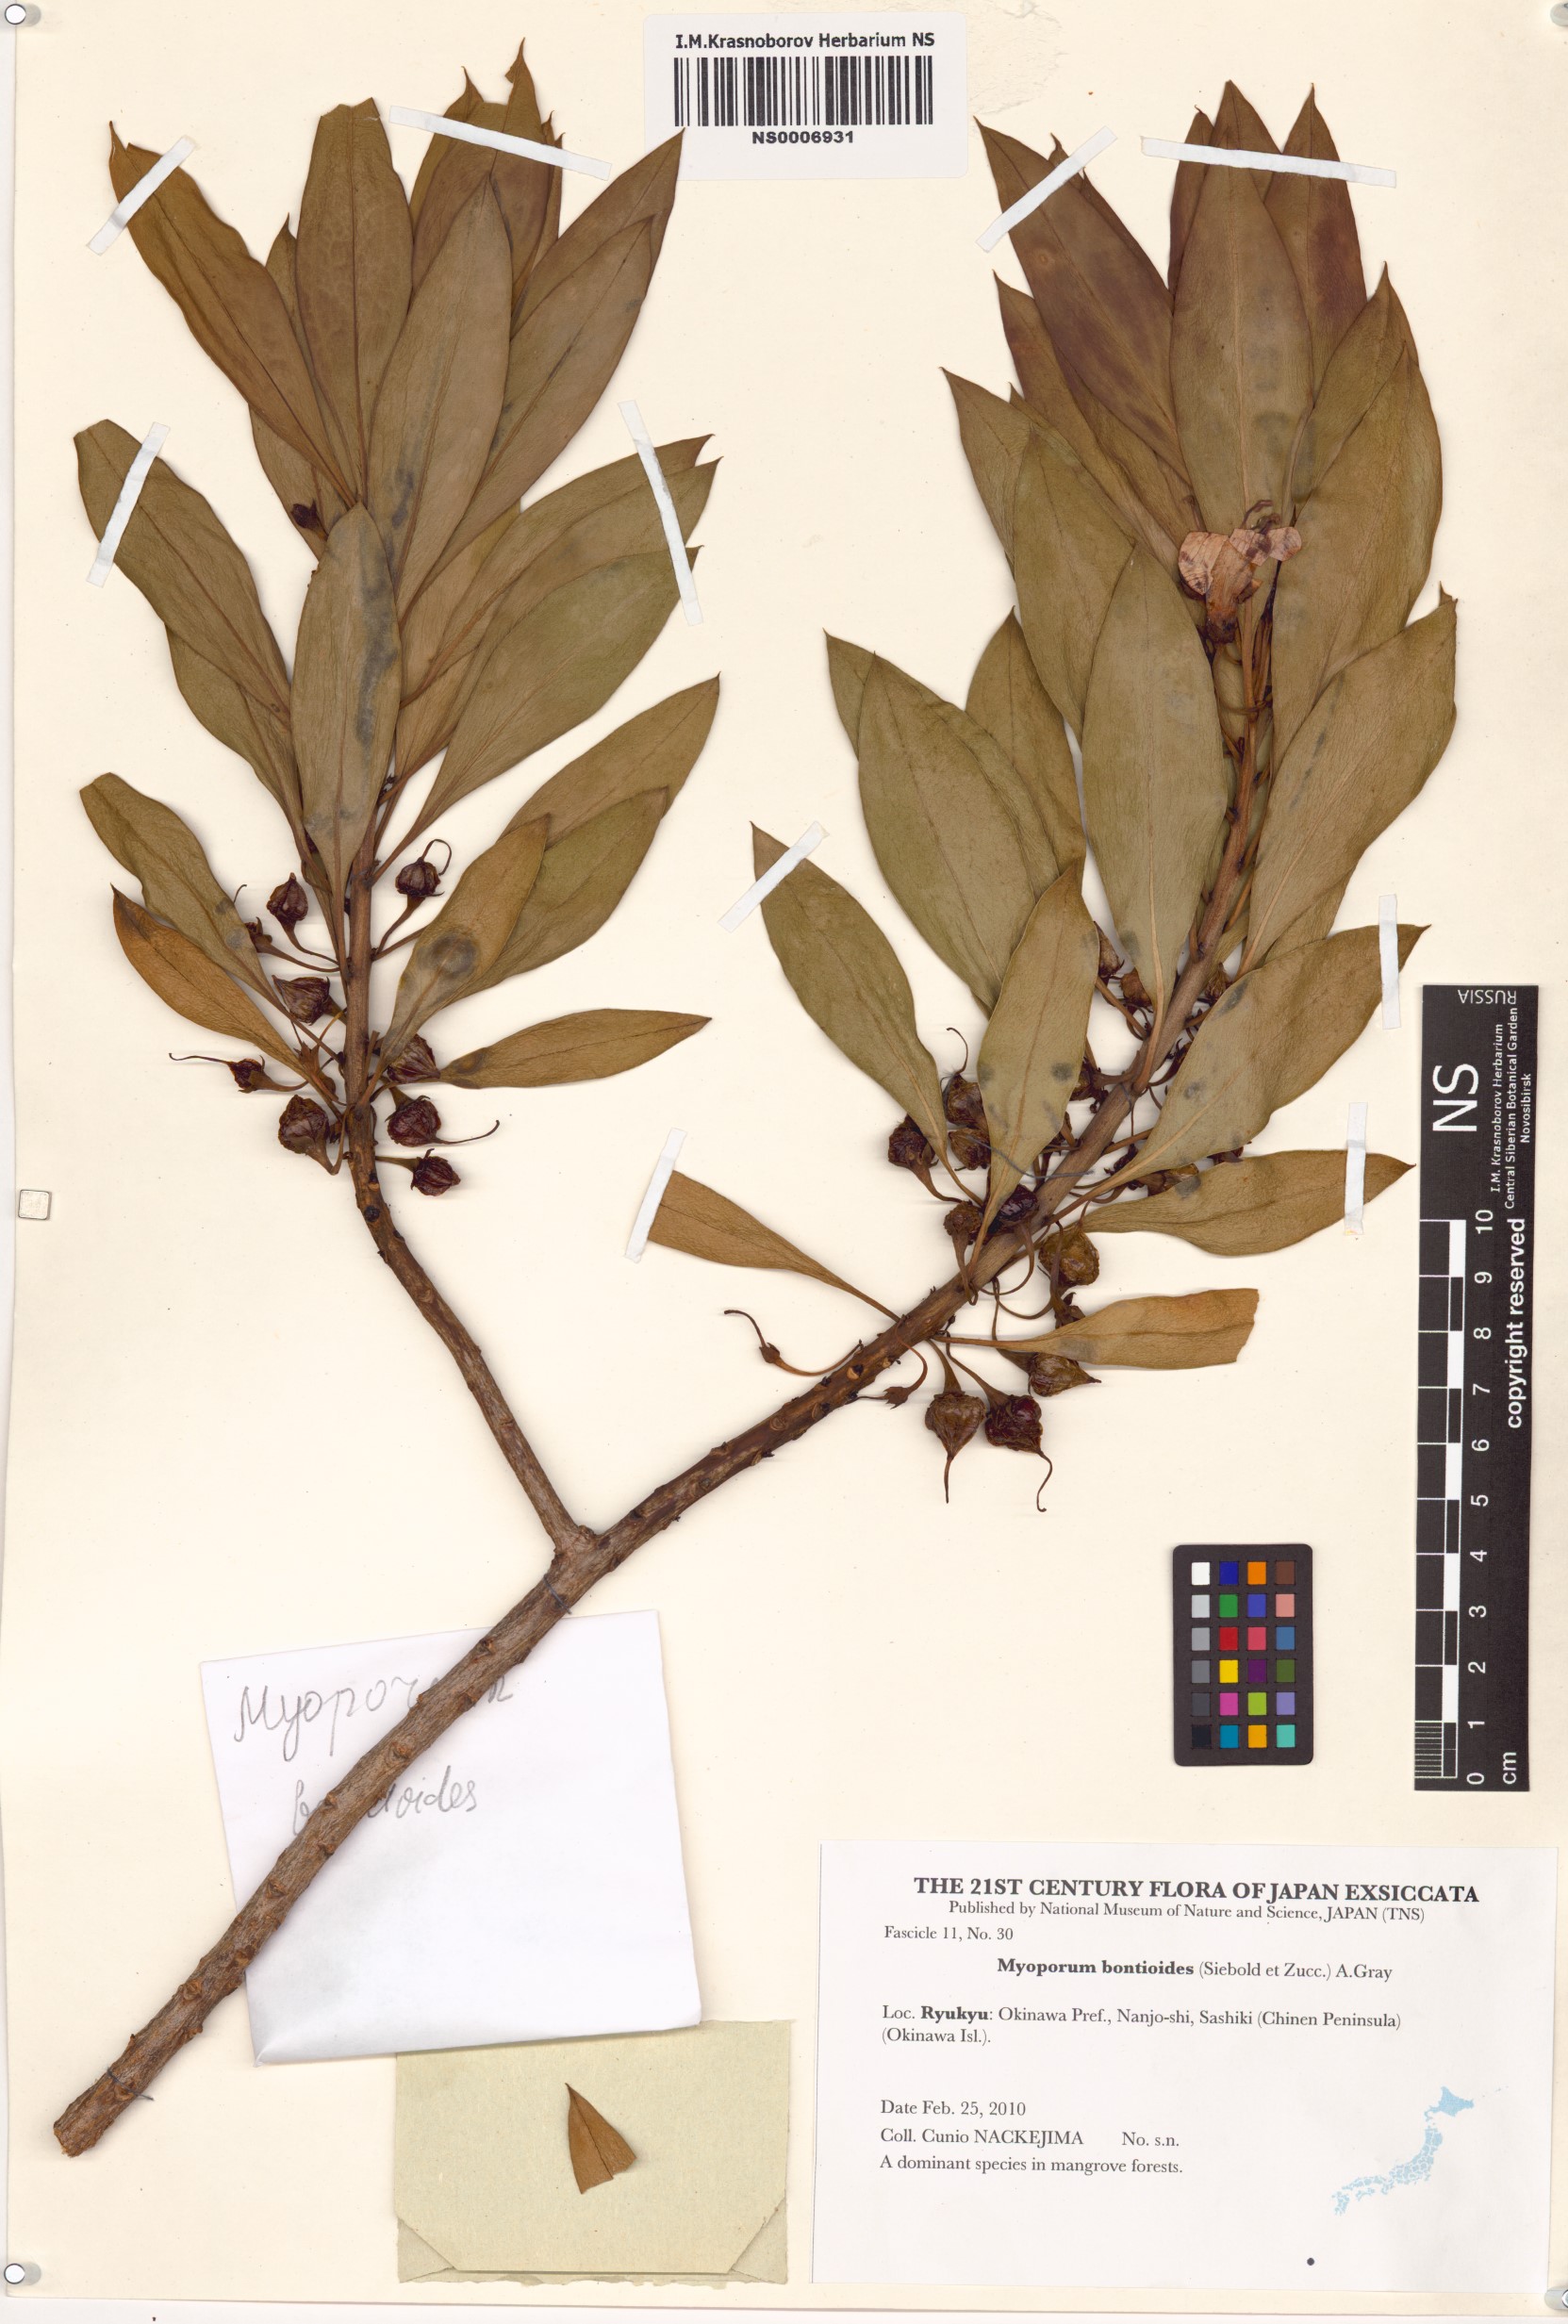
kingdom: Plantae
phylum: Tracheophyta
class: Magnoliopsida
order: Lamiales
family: Scrophulariaceae
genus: Myoporum
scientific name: Myoporum bontioides
